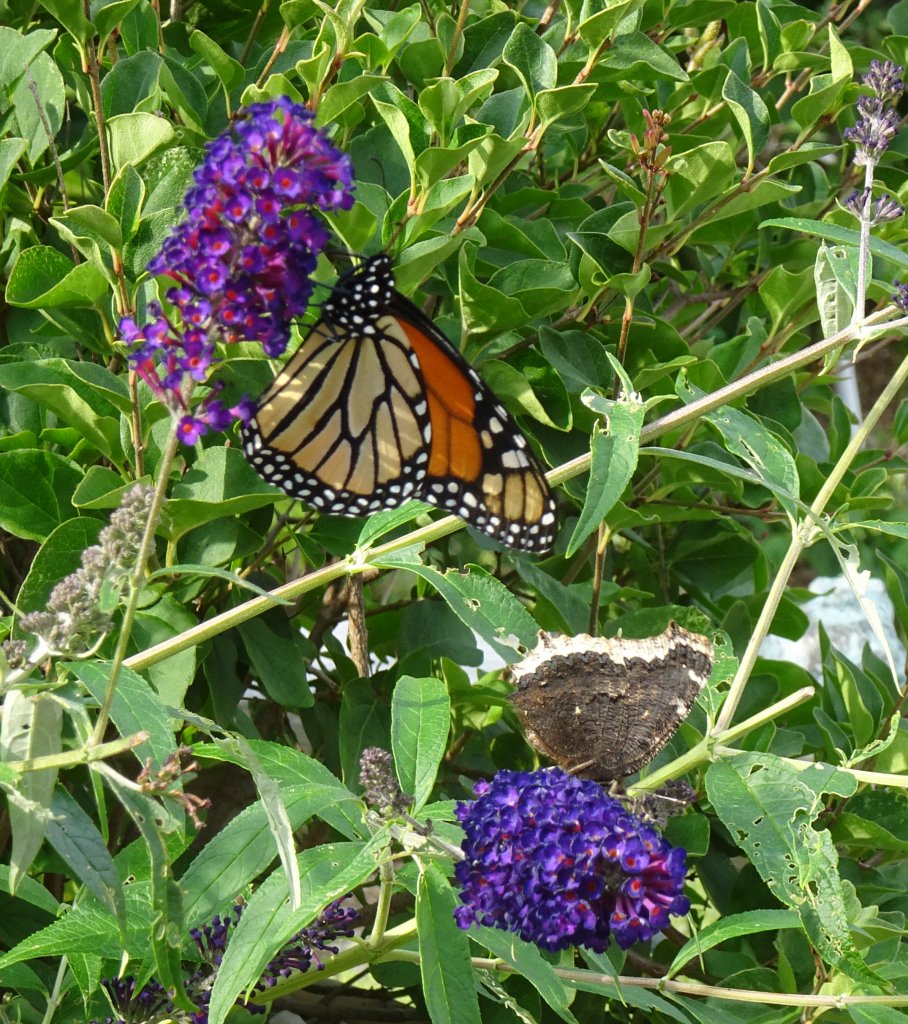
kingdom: Animalia
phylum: Arthropoda
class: Insecta
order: Lepidoptera
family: Nymphalidae
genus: Danaus
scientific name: Danaus plexippus
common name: Monarch
